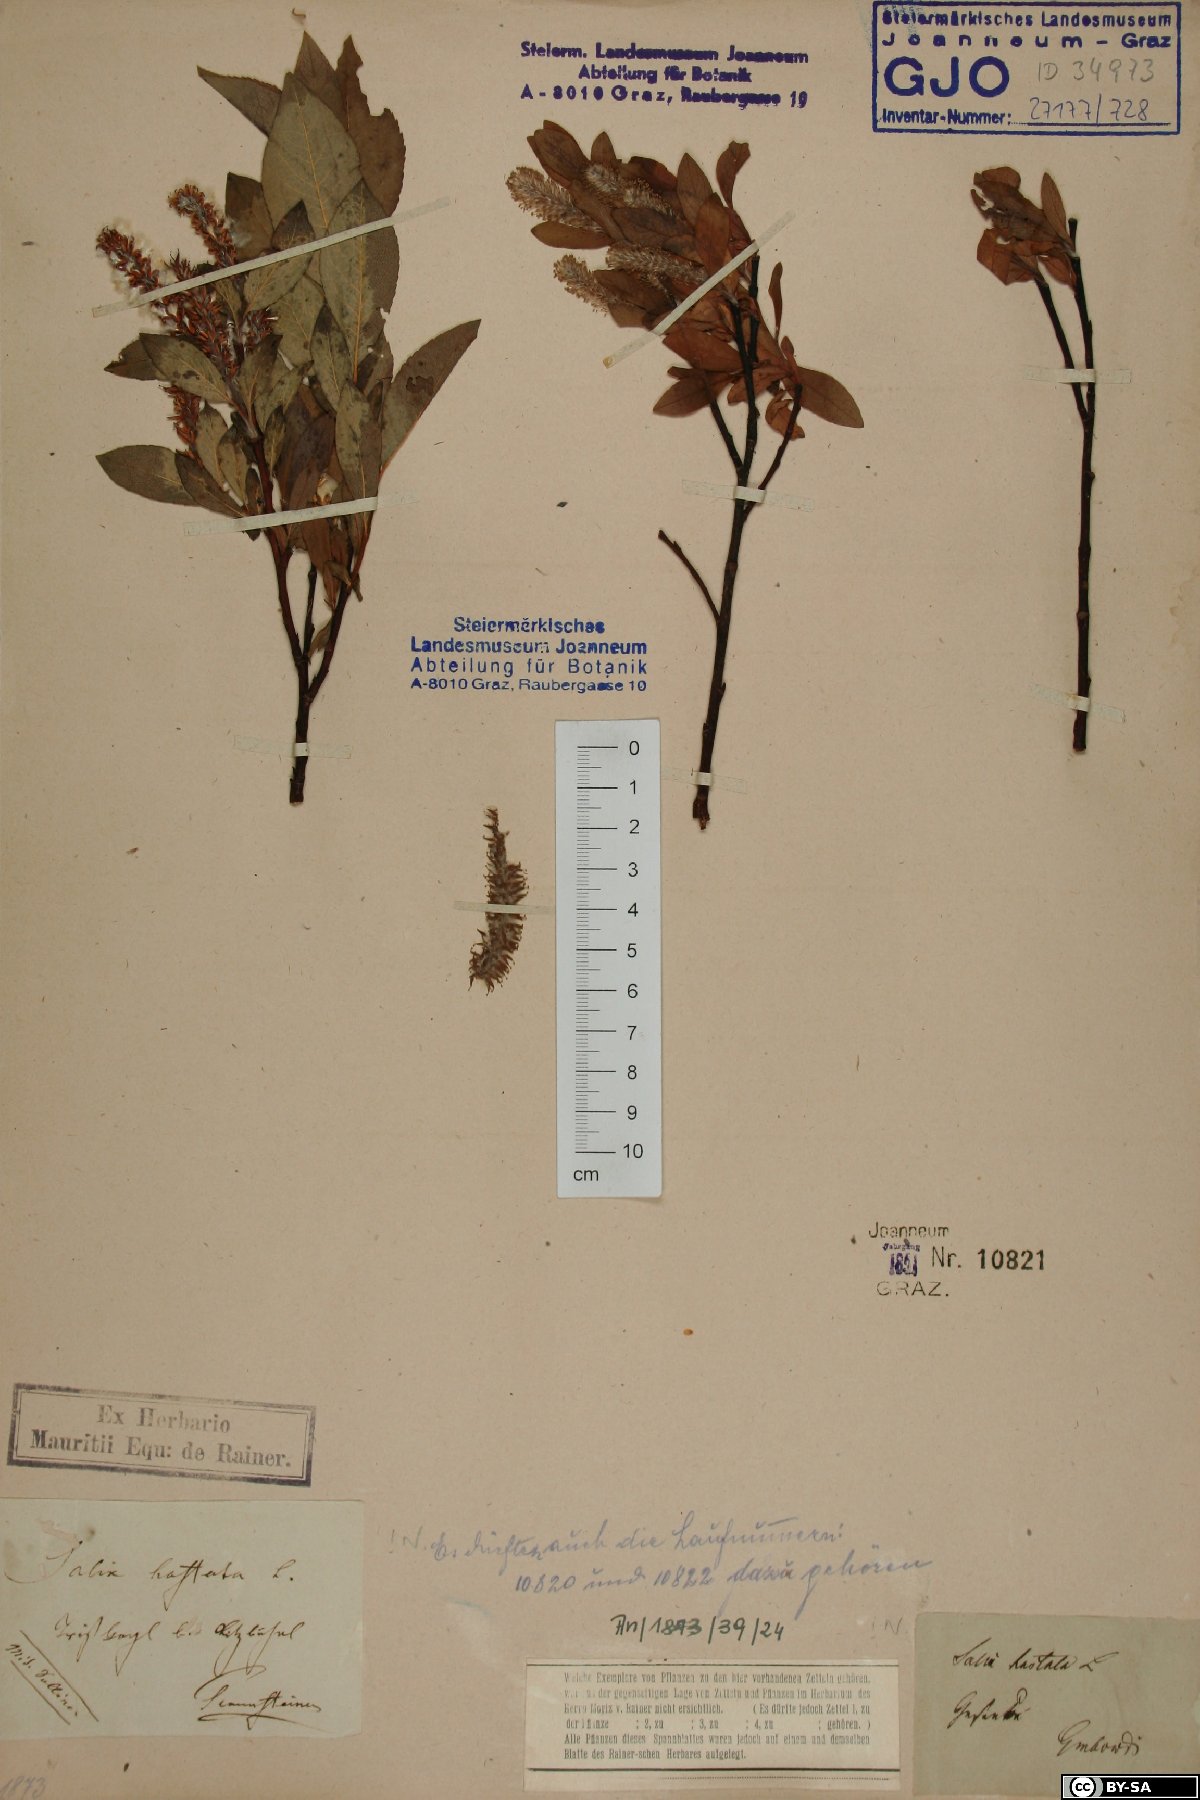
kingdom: Plantae
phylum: Tracheophyta
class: Magnoliopsida
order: Malpighiales
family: Salicaceae
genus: Salix
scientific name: Salix hastata
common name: Halberd willow
